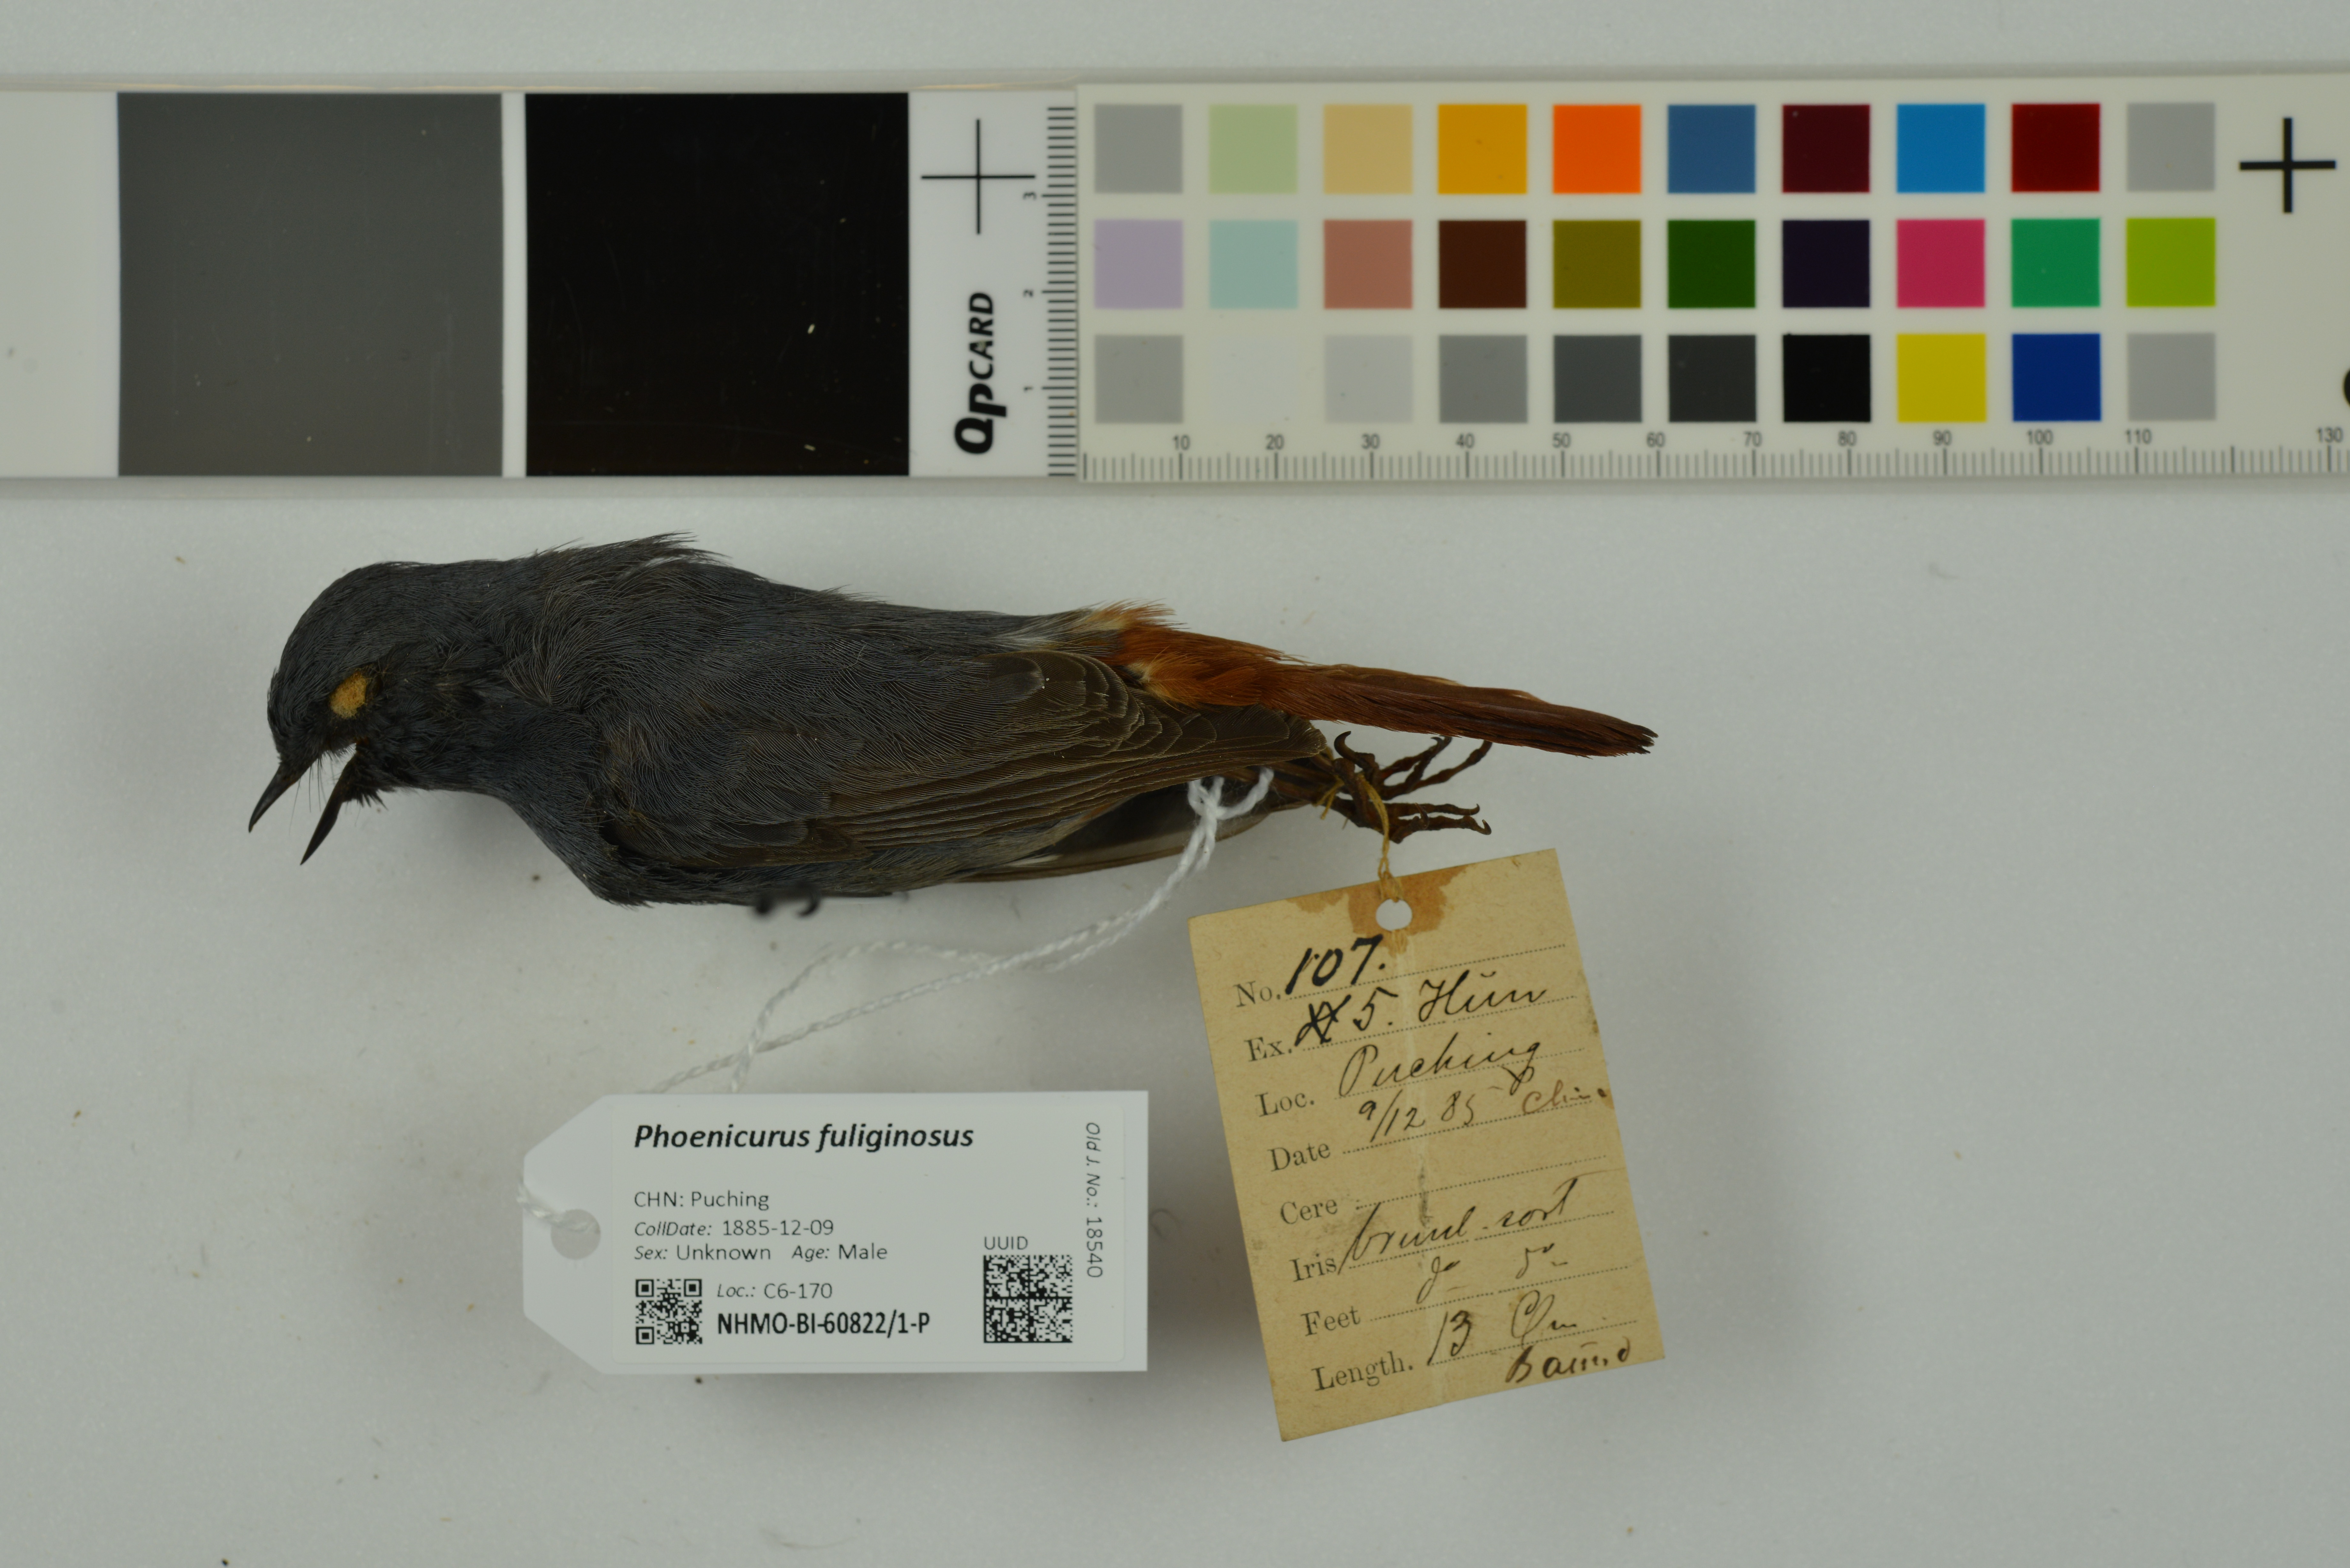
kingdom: Animalia
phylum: Chordata
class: Aves
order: Passeriformes
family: Muscicapidae
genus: Phoenicurus
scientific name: Phoenicurus fuliginosus
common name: Plumbeous water redstart
